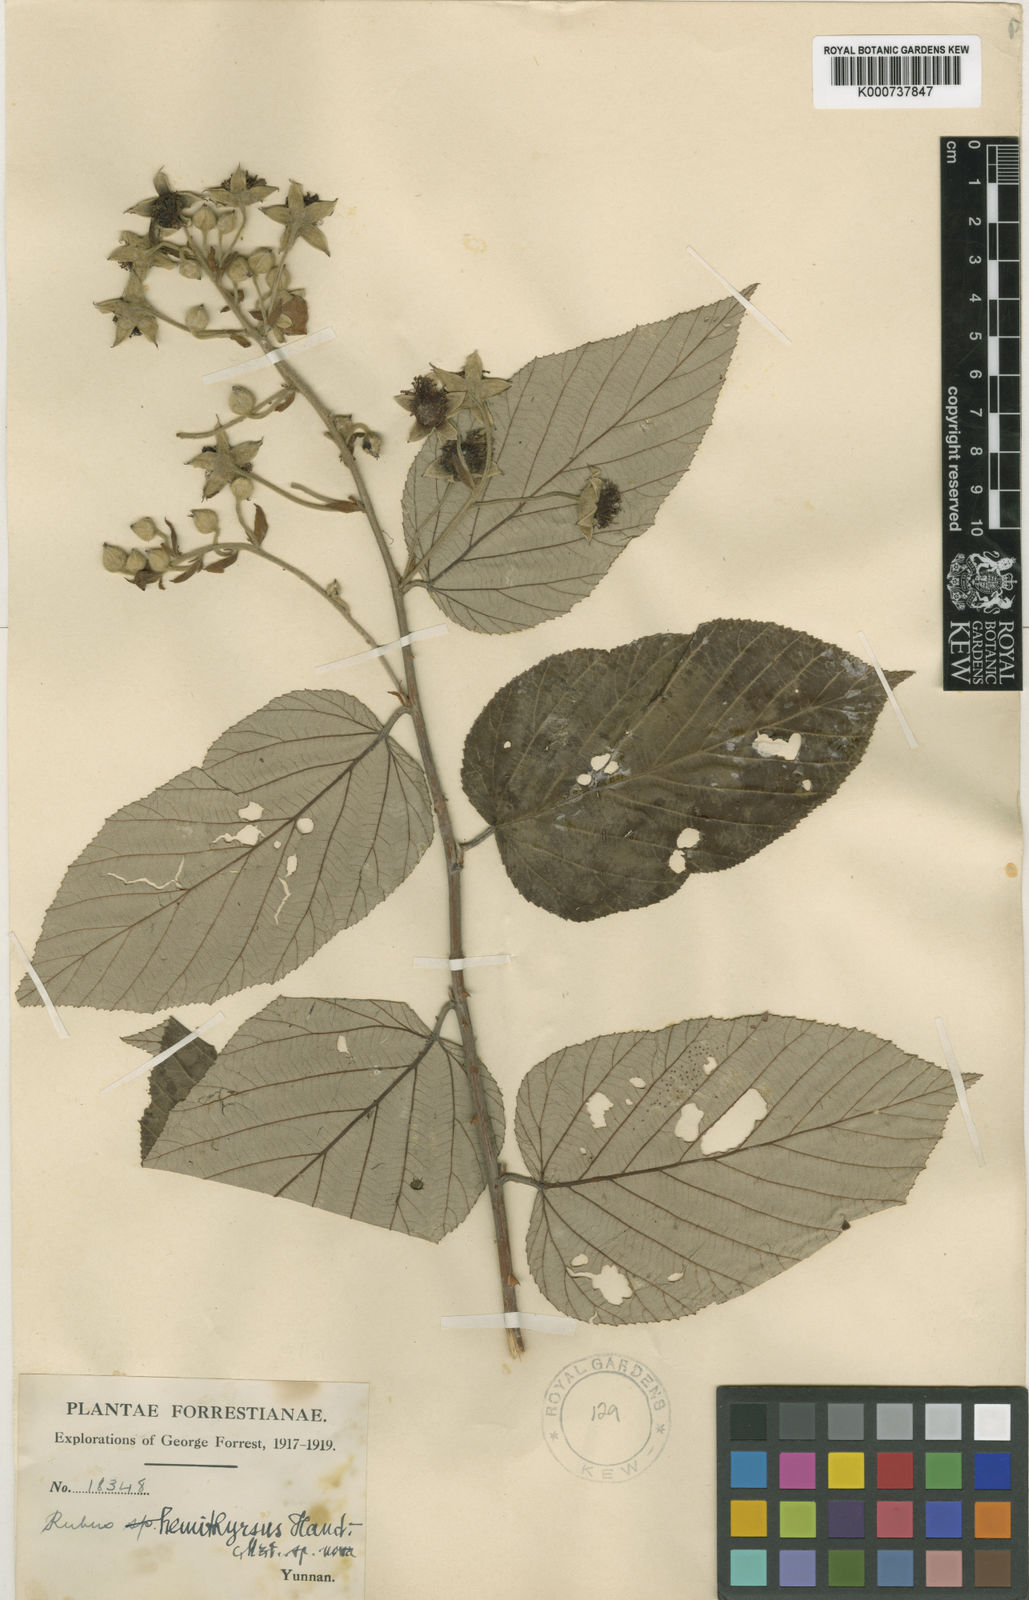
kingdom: Plantae
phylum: Tracheophyta
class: Magnoliopsida
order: Rosales
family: Rosaceae
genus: Rubus
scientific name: Rubus hemithyrsus
